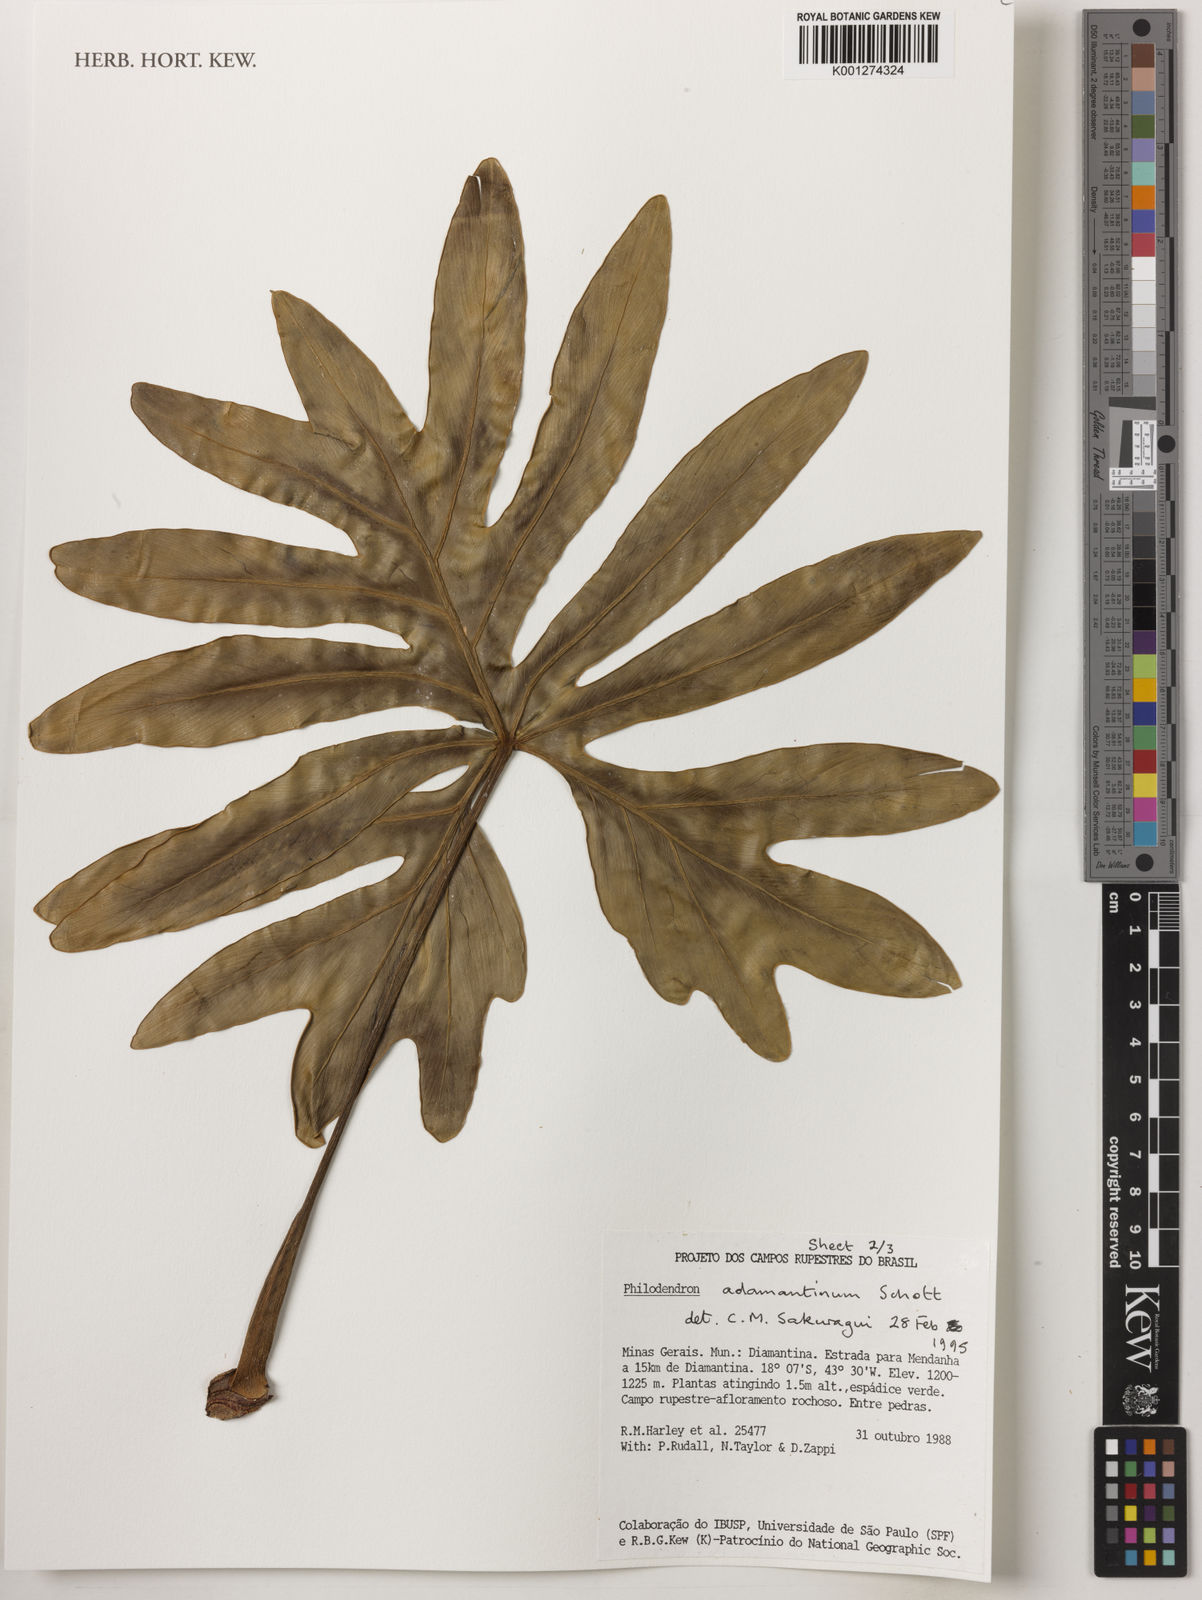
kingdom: Plantae
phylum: Tracheophyta
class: Liliopsida
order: Alismatales
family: Araceae
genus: Thaumatophyllum
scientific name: Thaumatophyllum adamantinum
